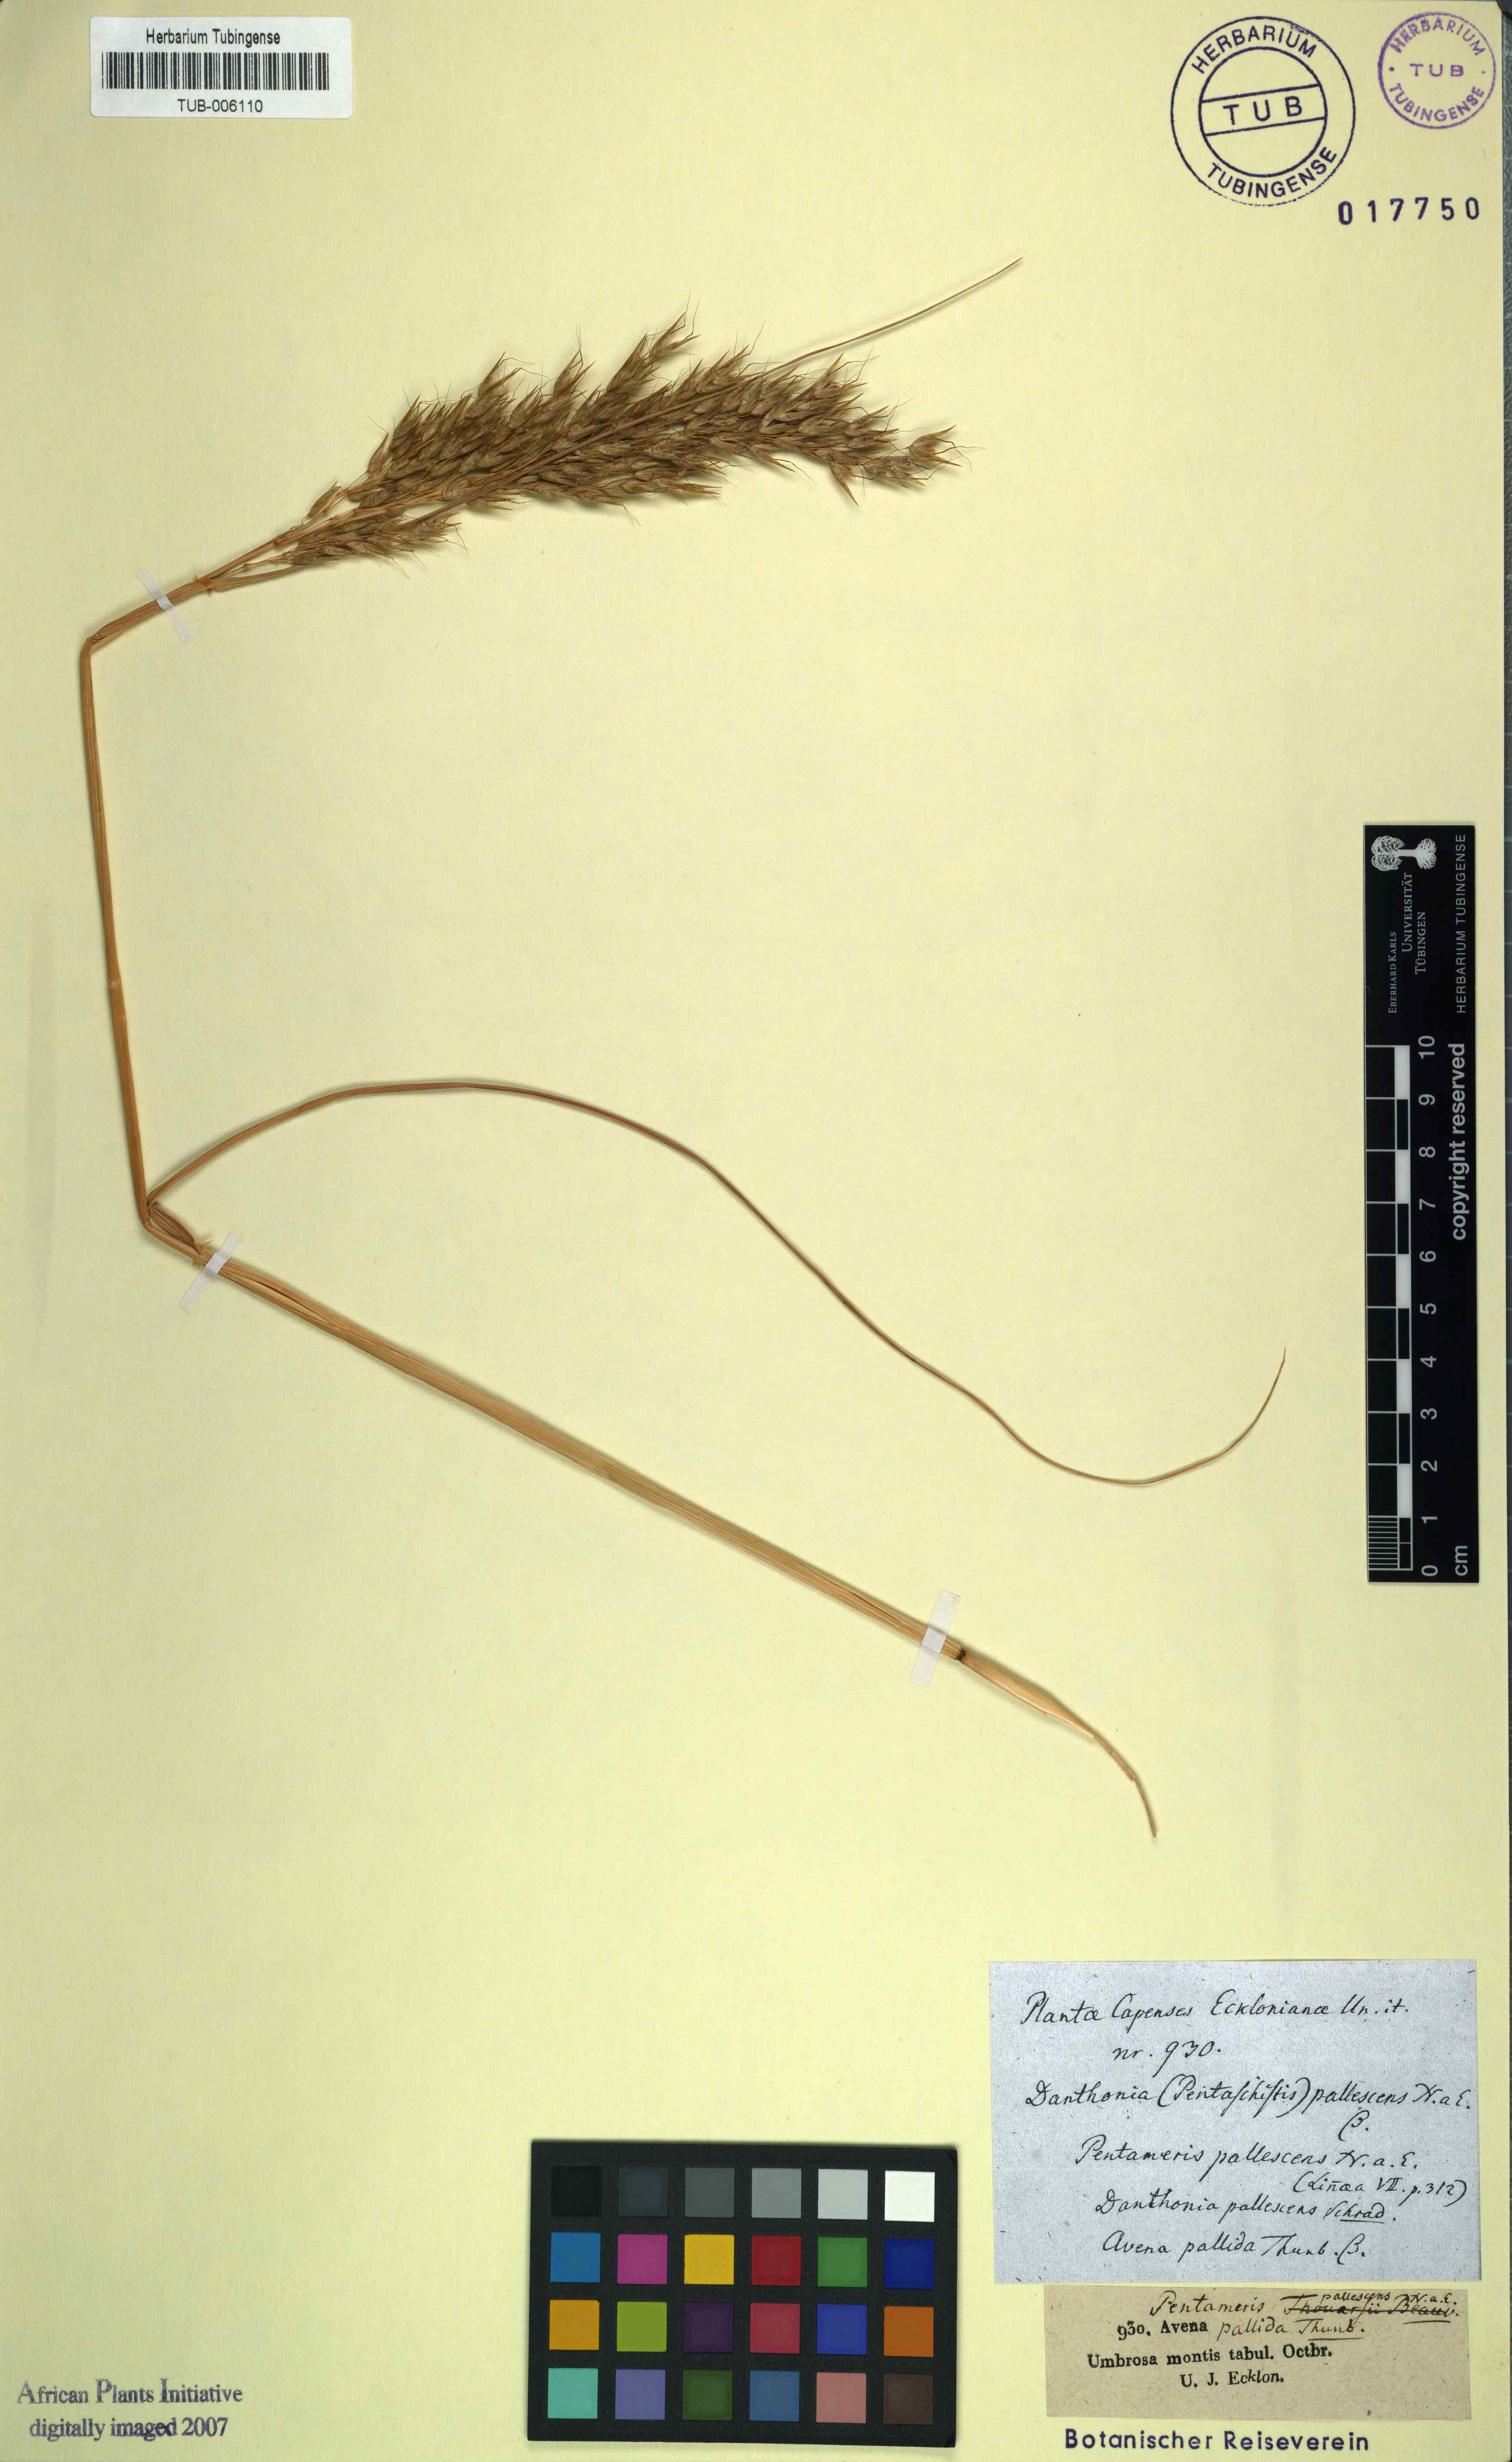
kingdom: Plantae
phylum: Tracheophyta
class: Liliopsida
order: Poales
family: Poaceae
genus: Pentameris
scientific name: Pentameris pallescens
